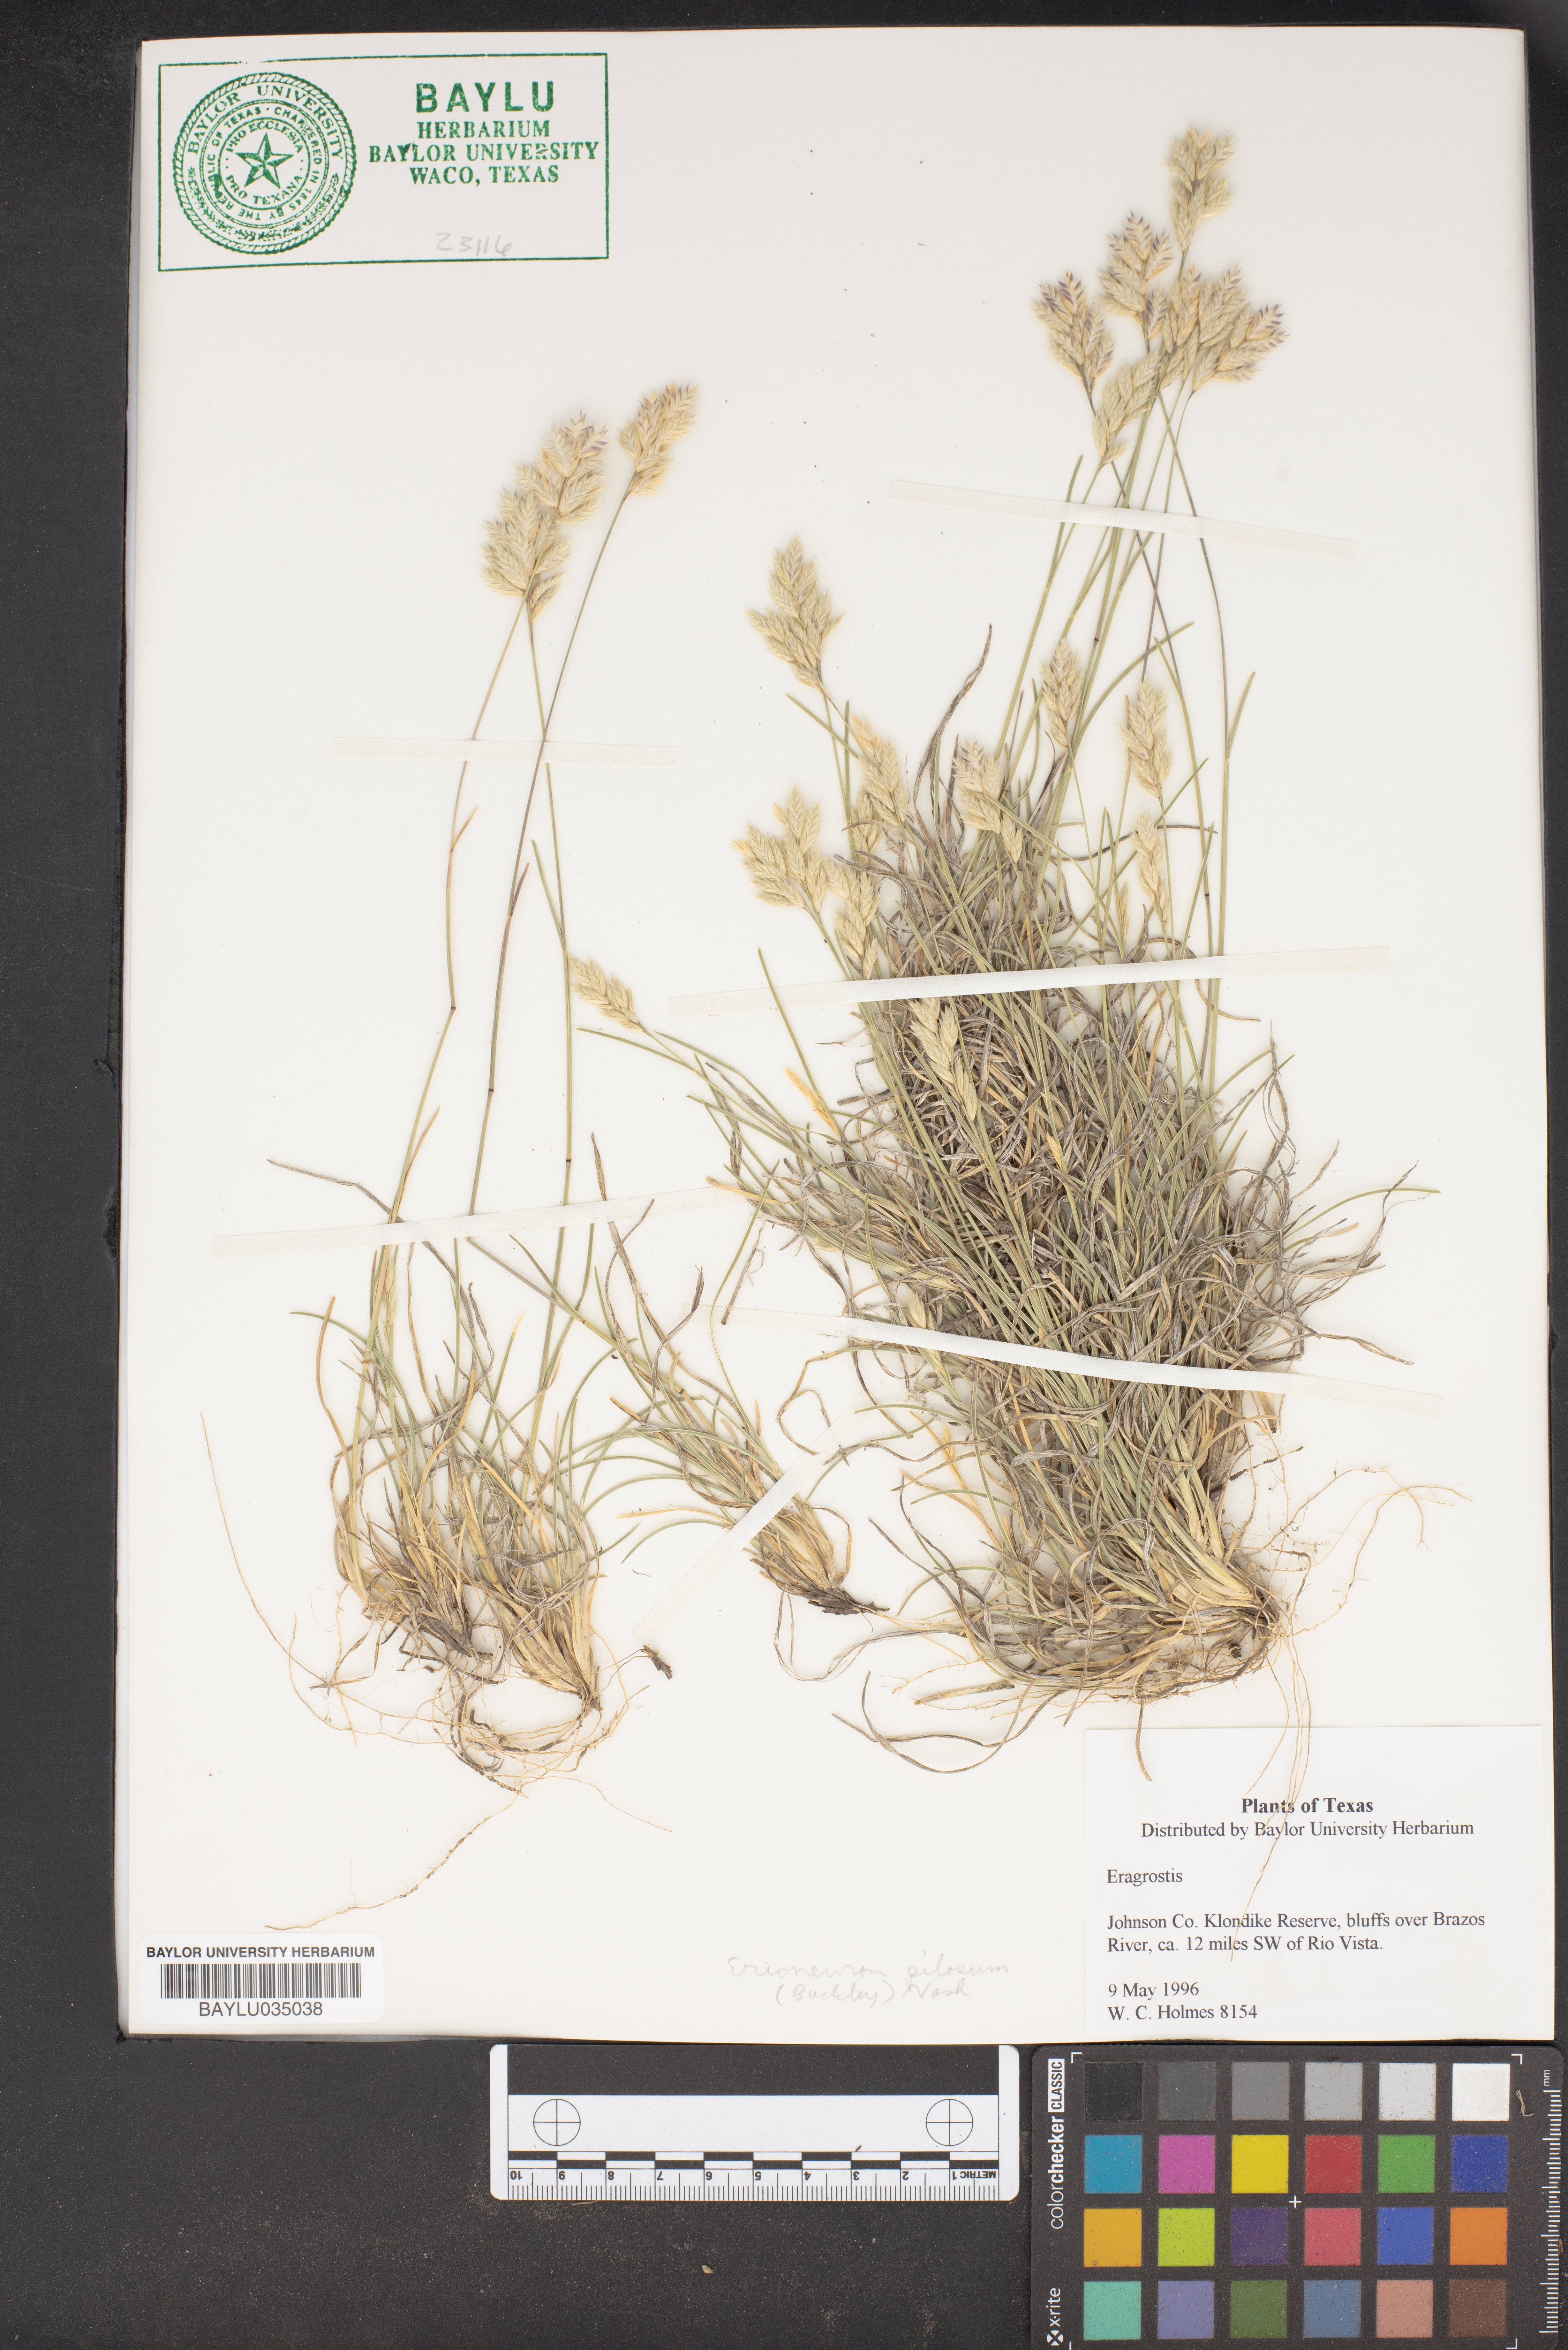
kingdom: Plantae
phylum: Tracheophyta
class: Liliopsida
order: Poales
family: Poaceae
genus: Eragrostis
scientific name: Eragrostis
